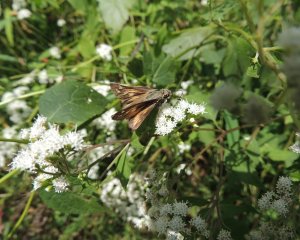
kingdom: Animalia
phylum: Arthropoda
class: Insecta
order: Lepidoptera
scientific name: Lepidoptera
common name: Butterflies
